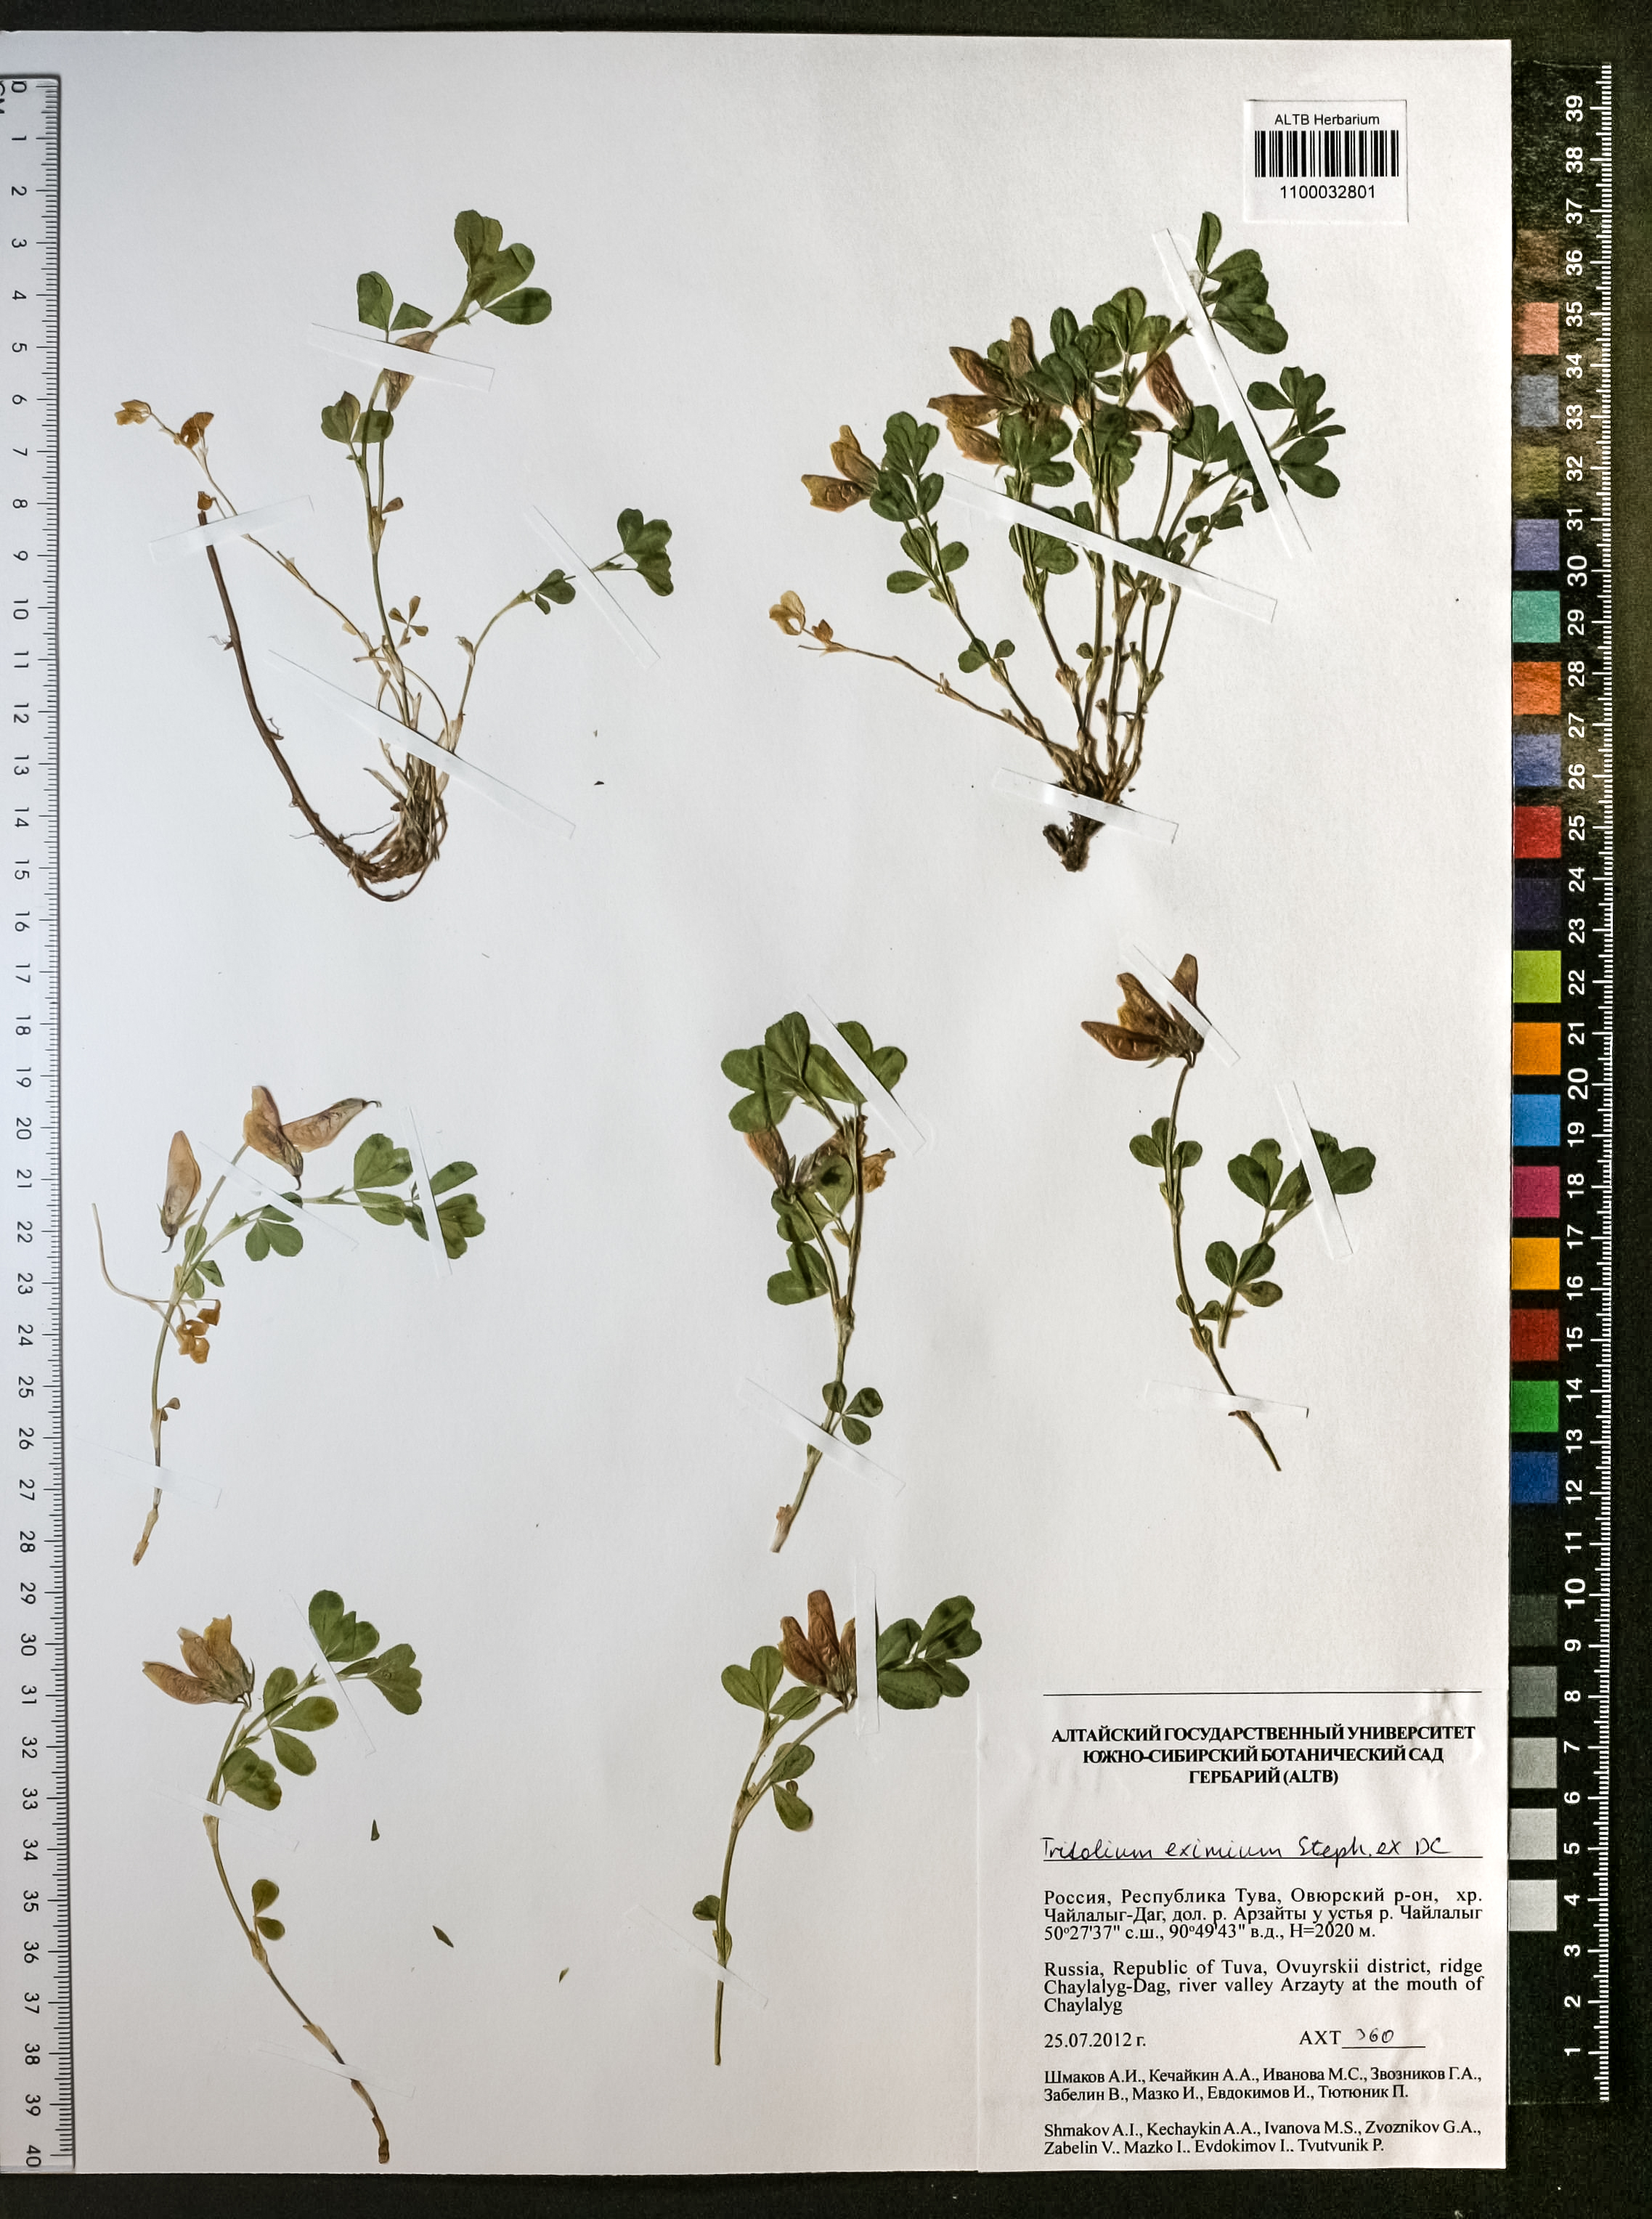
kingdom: Plantae
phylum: Tracheophyta
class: Magnoliopsida
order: Fabales
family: Fabaceae
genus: Trifolium
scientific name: Trifolium eximium
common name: Excellent clover
